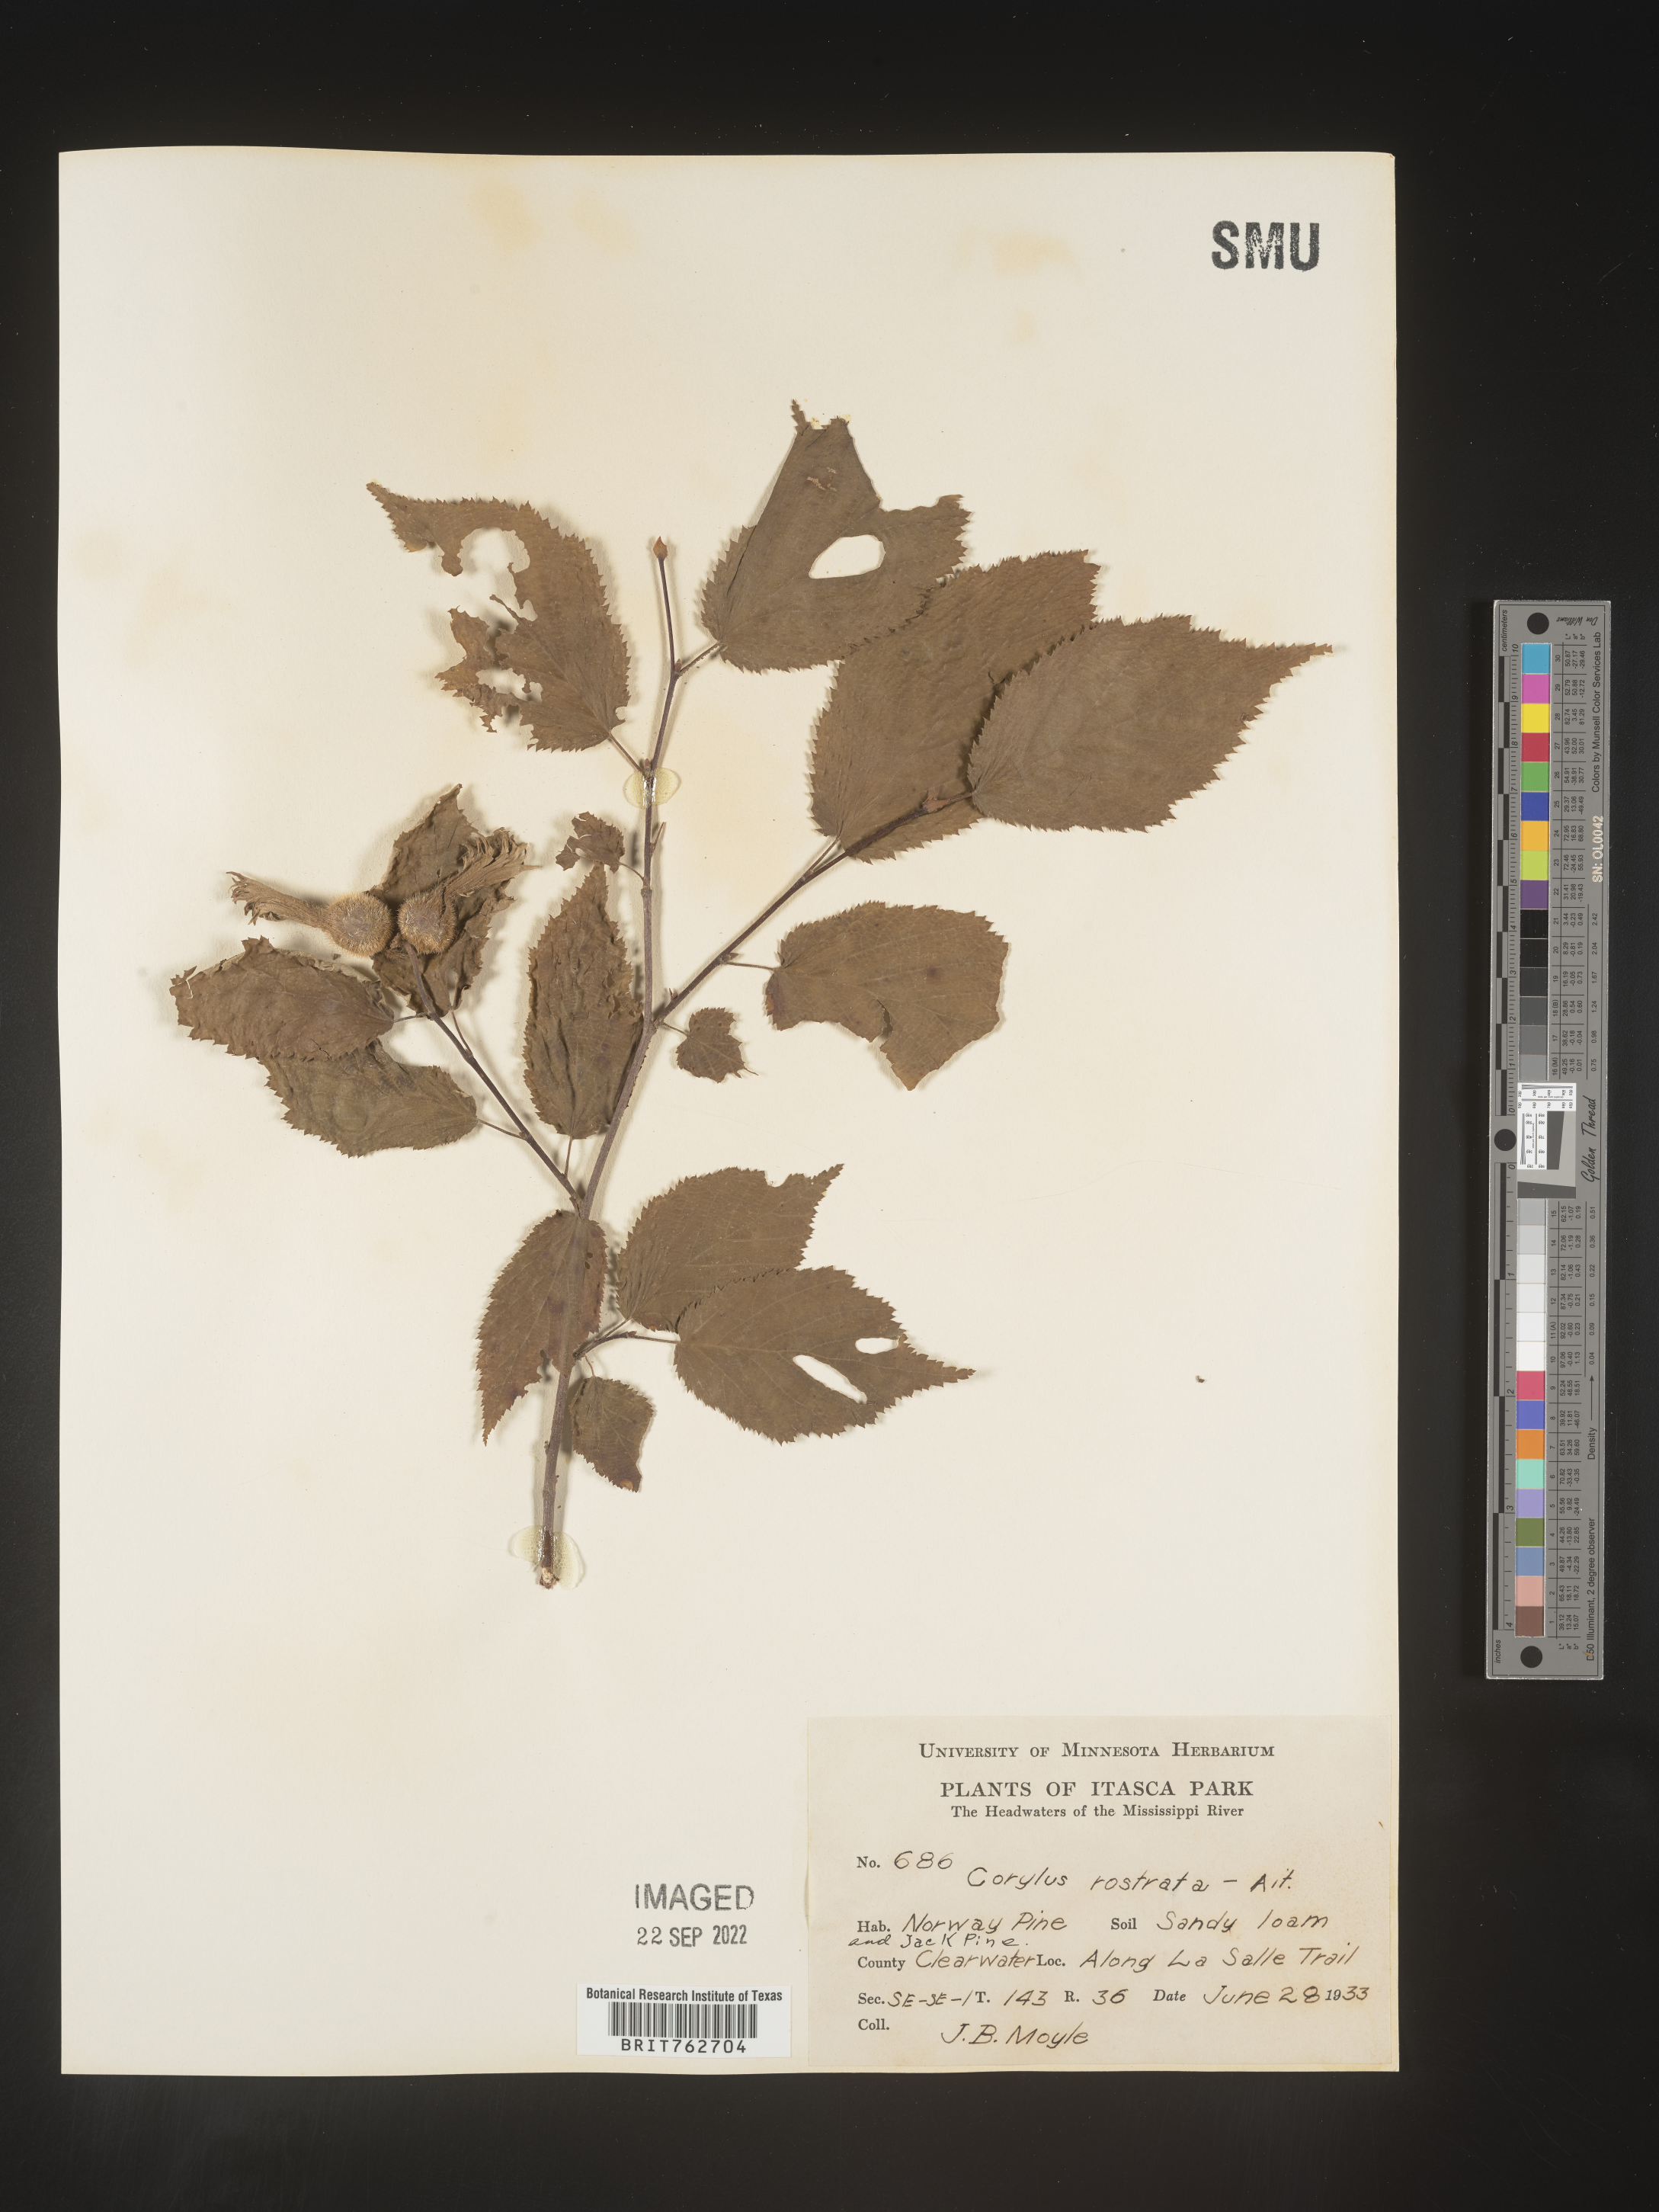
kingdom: Plantae
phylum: Tracheophyta
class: Magnoliopsida
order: Fagales
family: Betulaceae
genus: Corylus
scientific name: Corylus cornuta
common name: Beaked hazel
